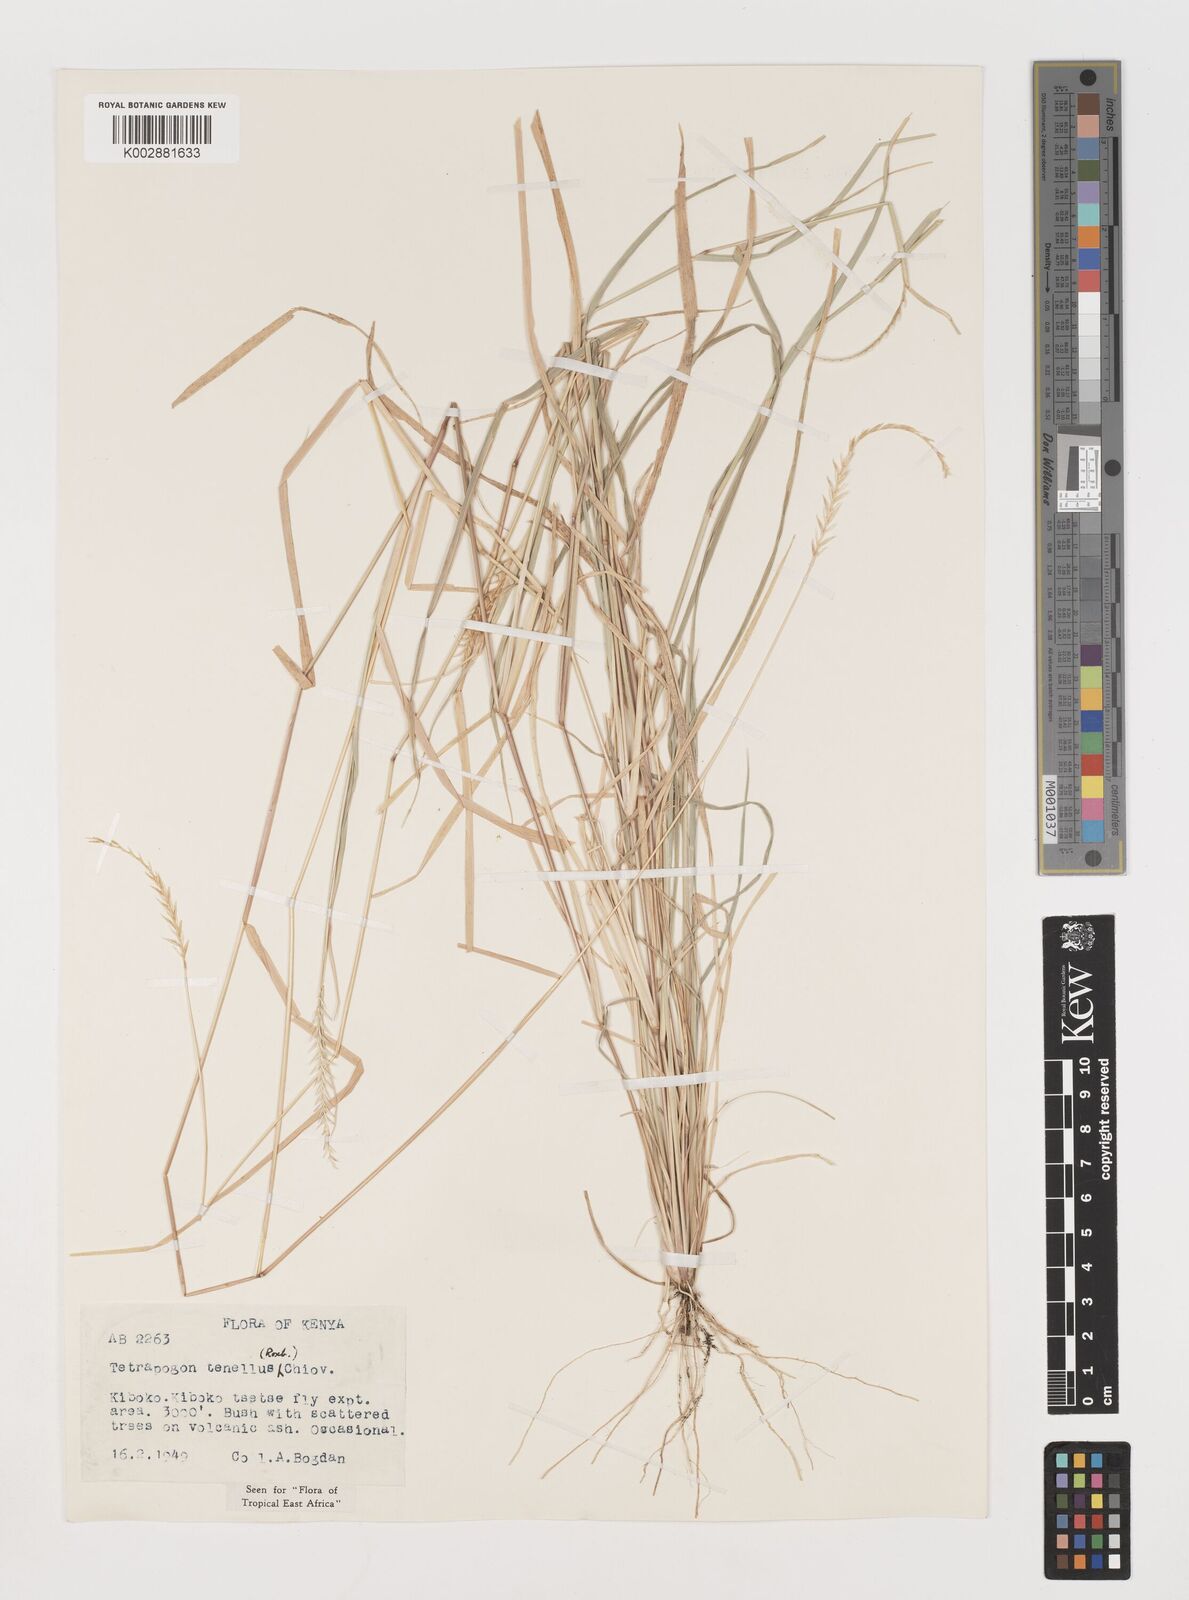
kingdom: Plantae
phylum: Tracheophyta
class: Liliopsida
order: Poales
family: Poaceae
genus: Tetrapogon
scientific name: Tetrapogon tenellus
